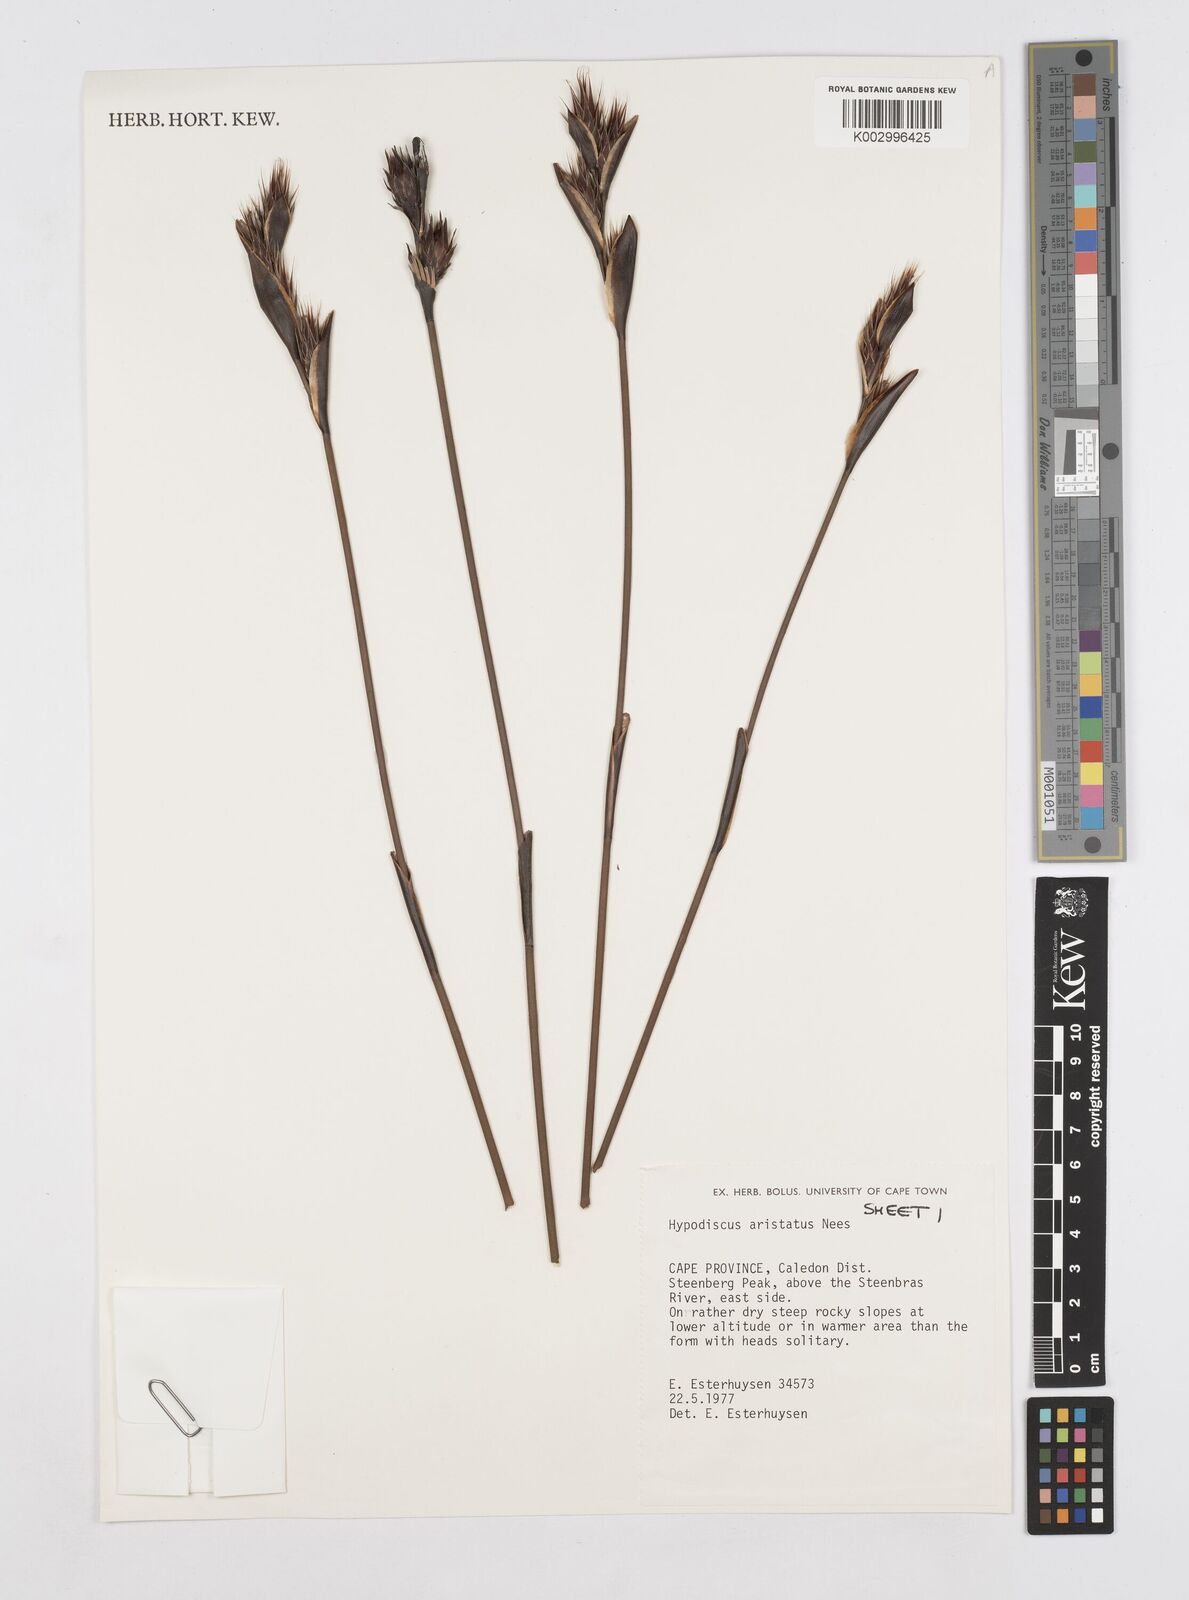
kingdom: Plantae
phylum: Tracheophyta
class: Liliopsida
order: Poales
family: Restionaceae
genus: Hypodiscus
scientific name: Hypodiscus aristatus
